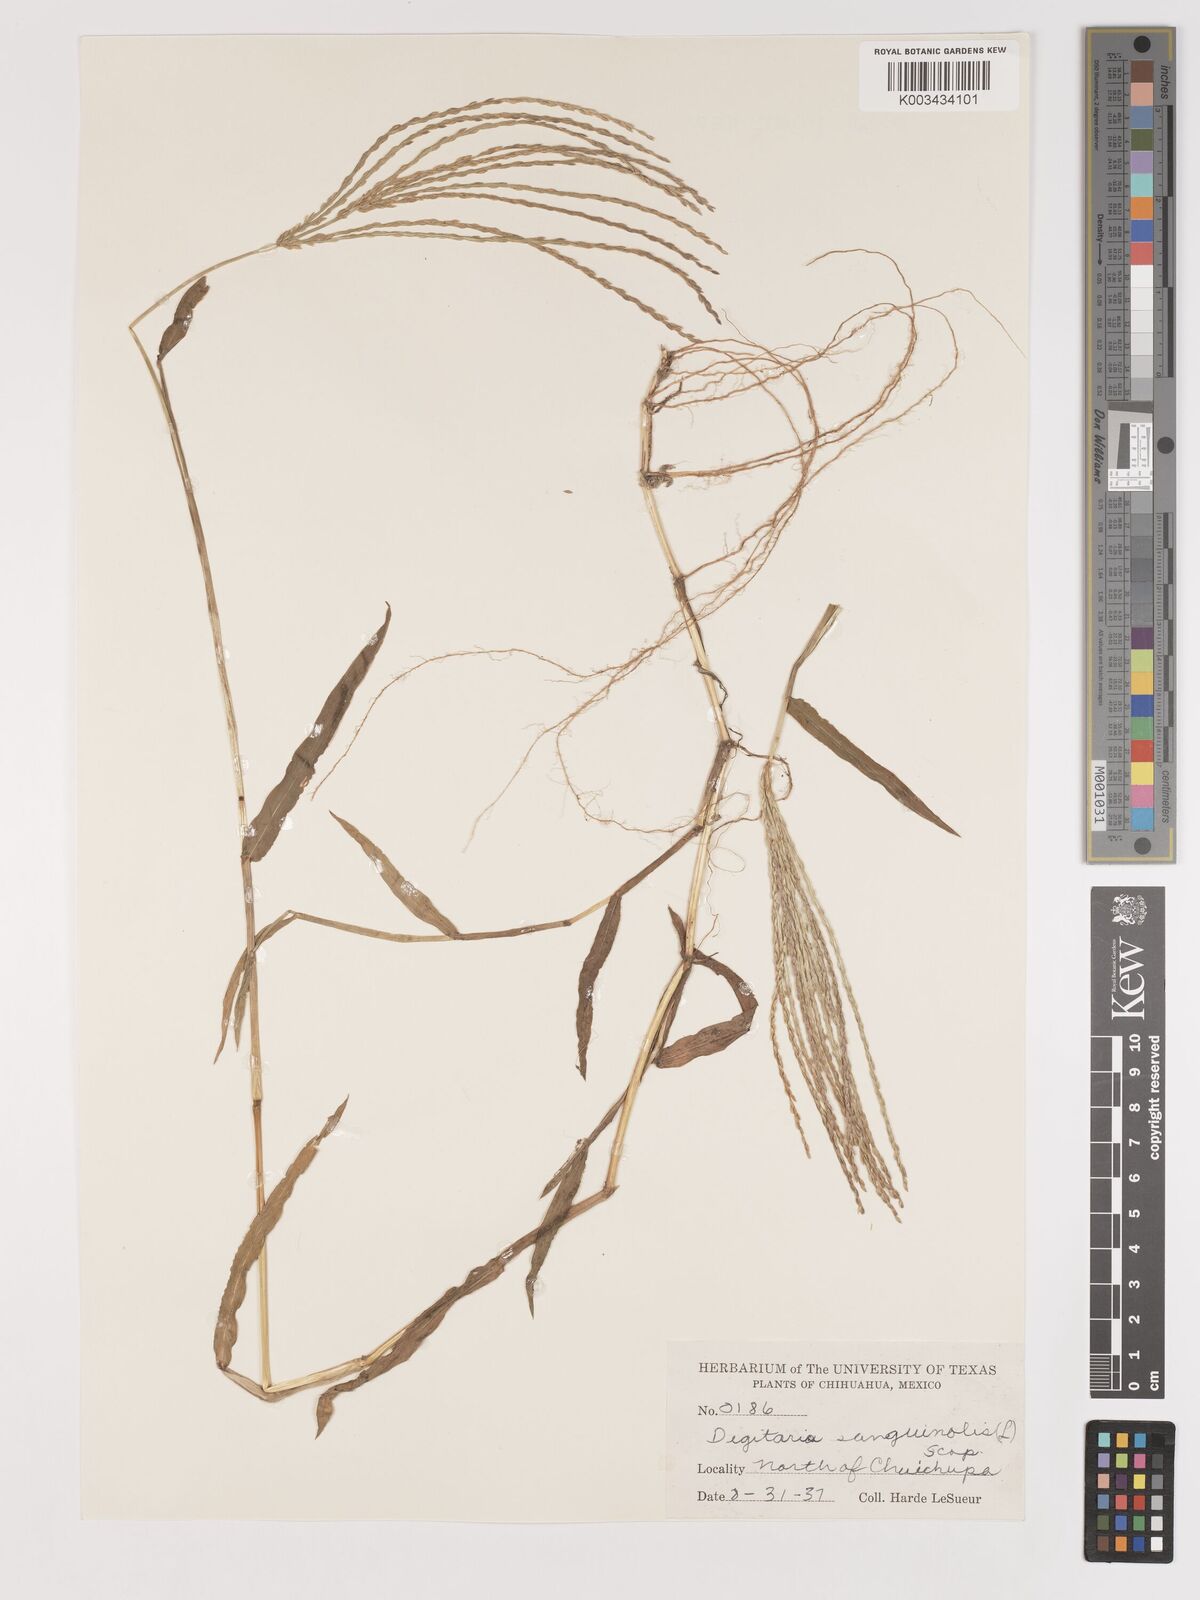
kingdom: Plantae
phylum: Tracheophyta
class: Liliopsida
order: Poales
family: Poaceae
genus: Digitaria
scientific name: Digitaria sanguinalis
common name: Hairy crabgrass
